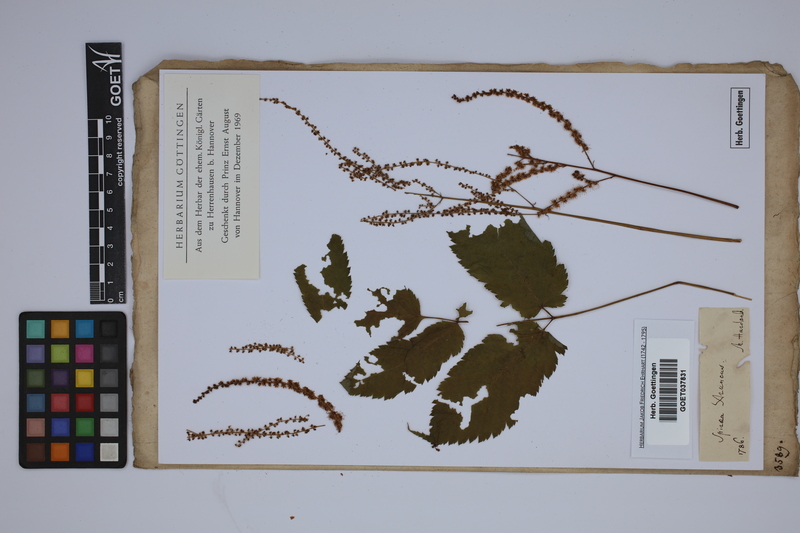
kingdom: Plantae
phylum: Tracheophyta
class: Magnoliopsida
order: Rosales
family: Rosaceae
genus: Aruncus
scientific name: Aruncus dioicus
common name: Buck's-beard
